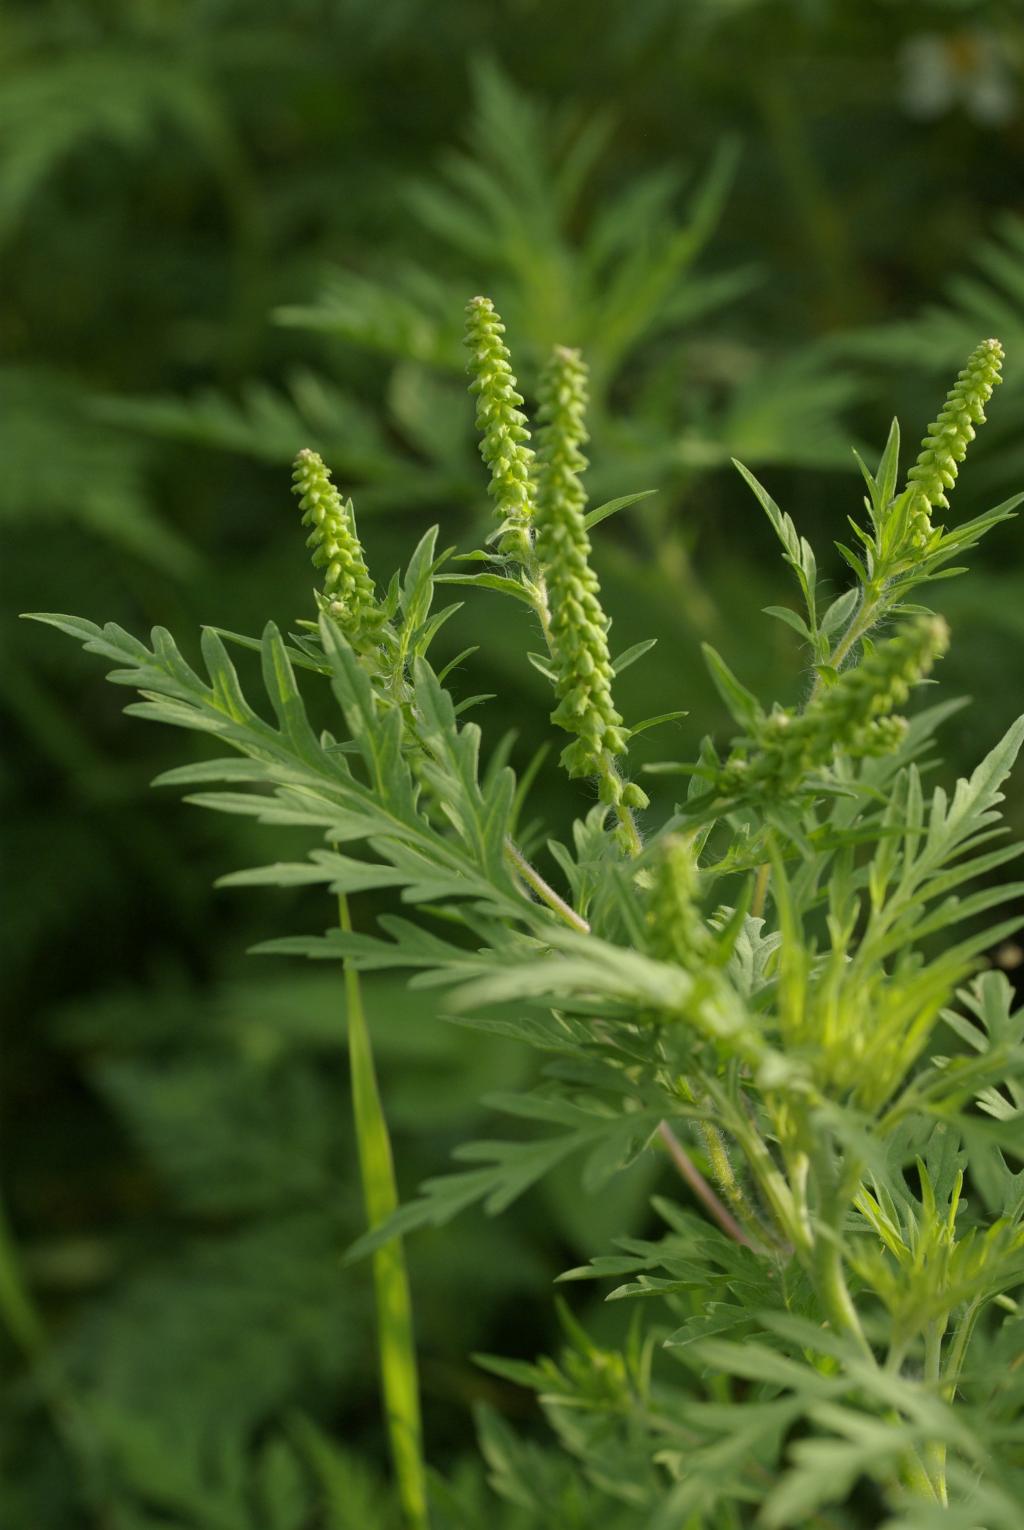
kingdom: Plantae
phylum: Tracheophyta
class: Magnoliopsida
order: Asterales
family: Asteraceae
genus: Ambrosia
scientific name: Ambrosia artemisiifolia
